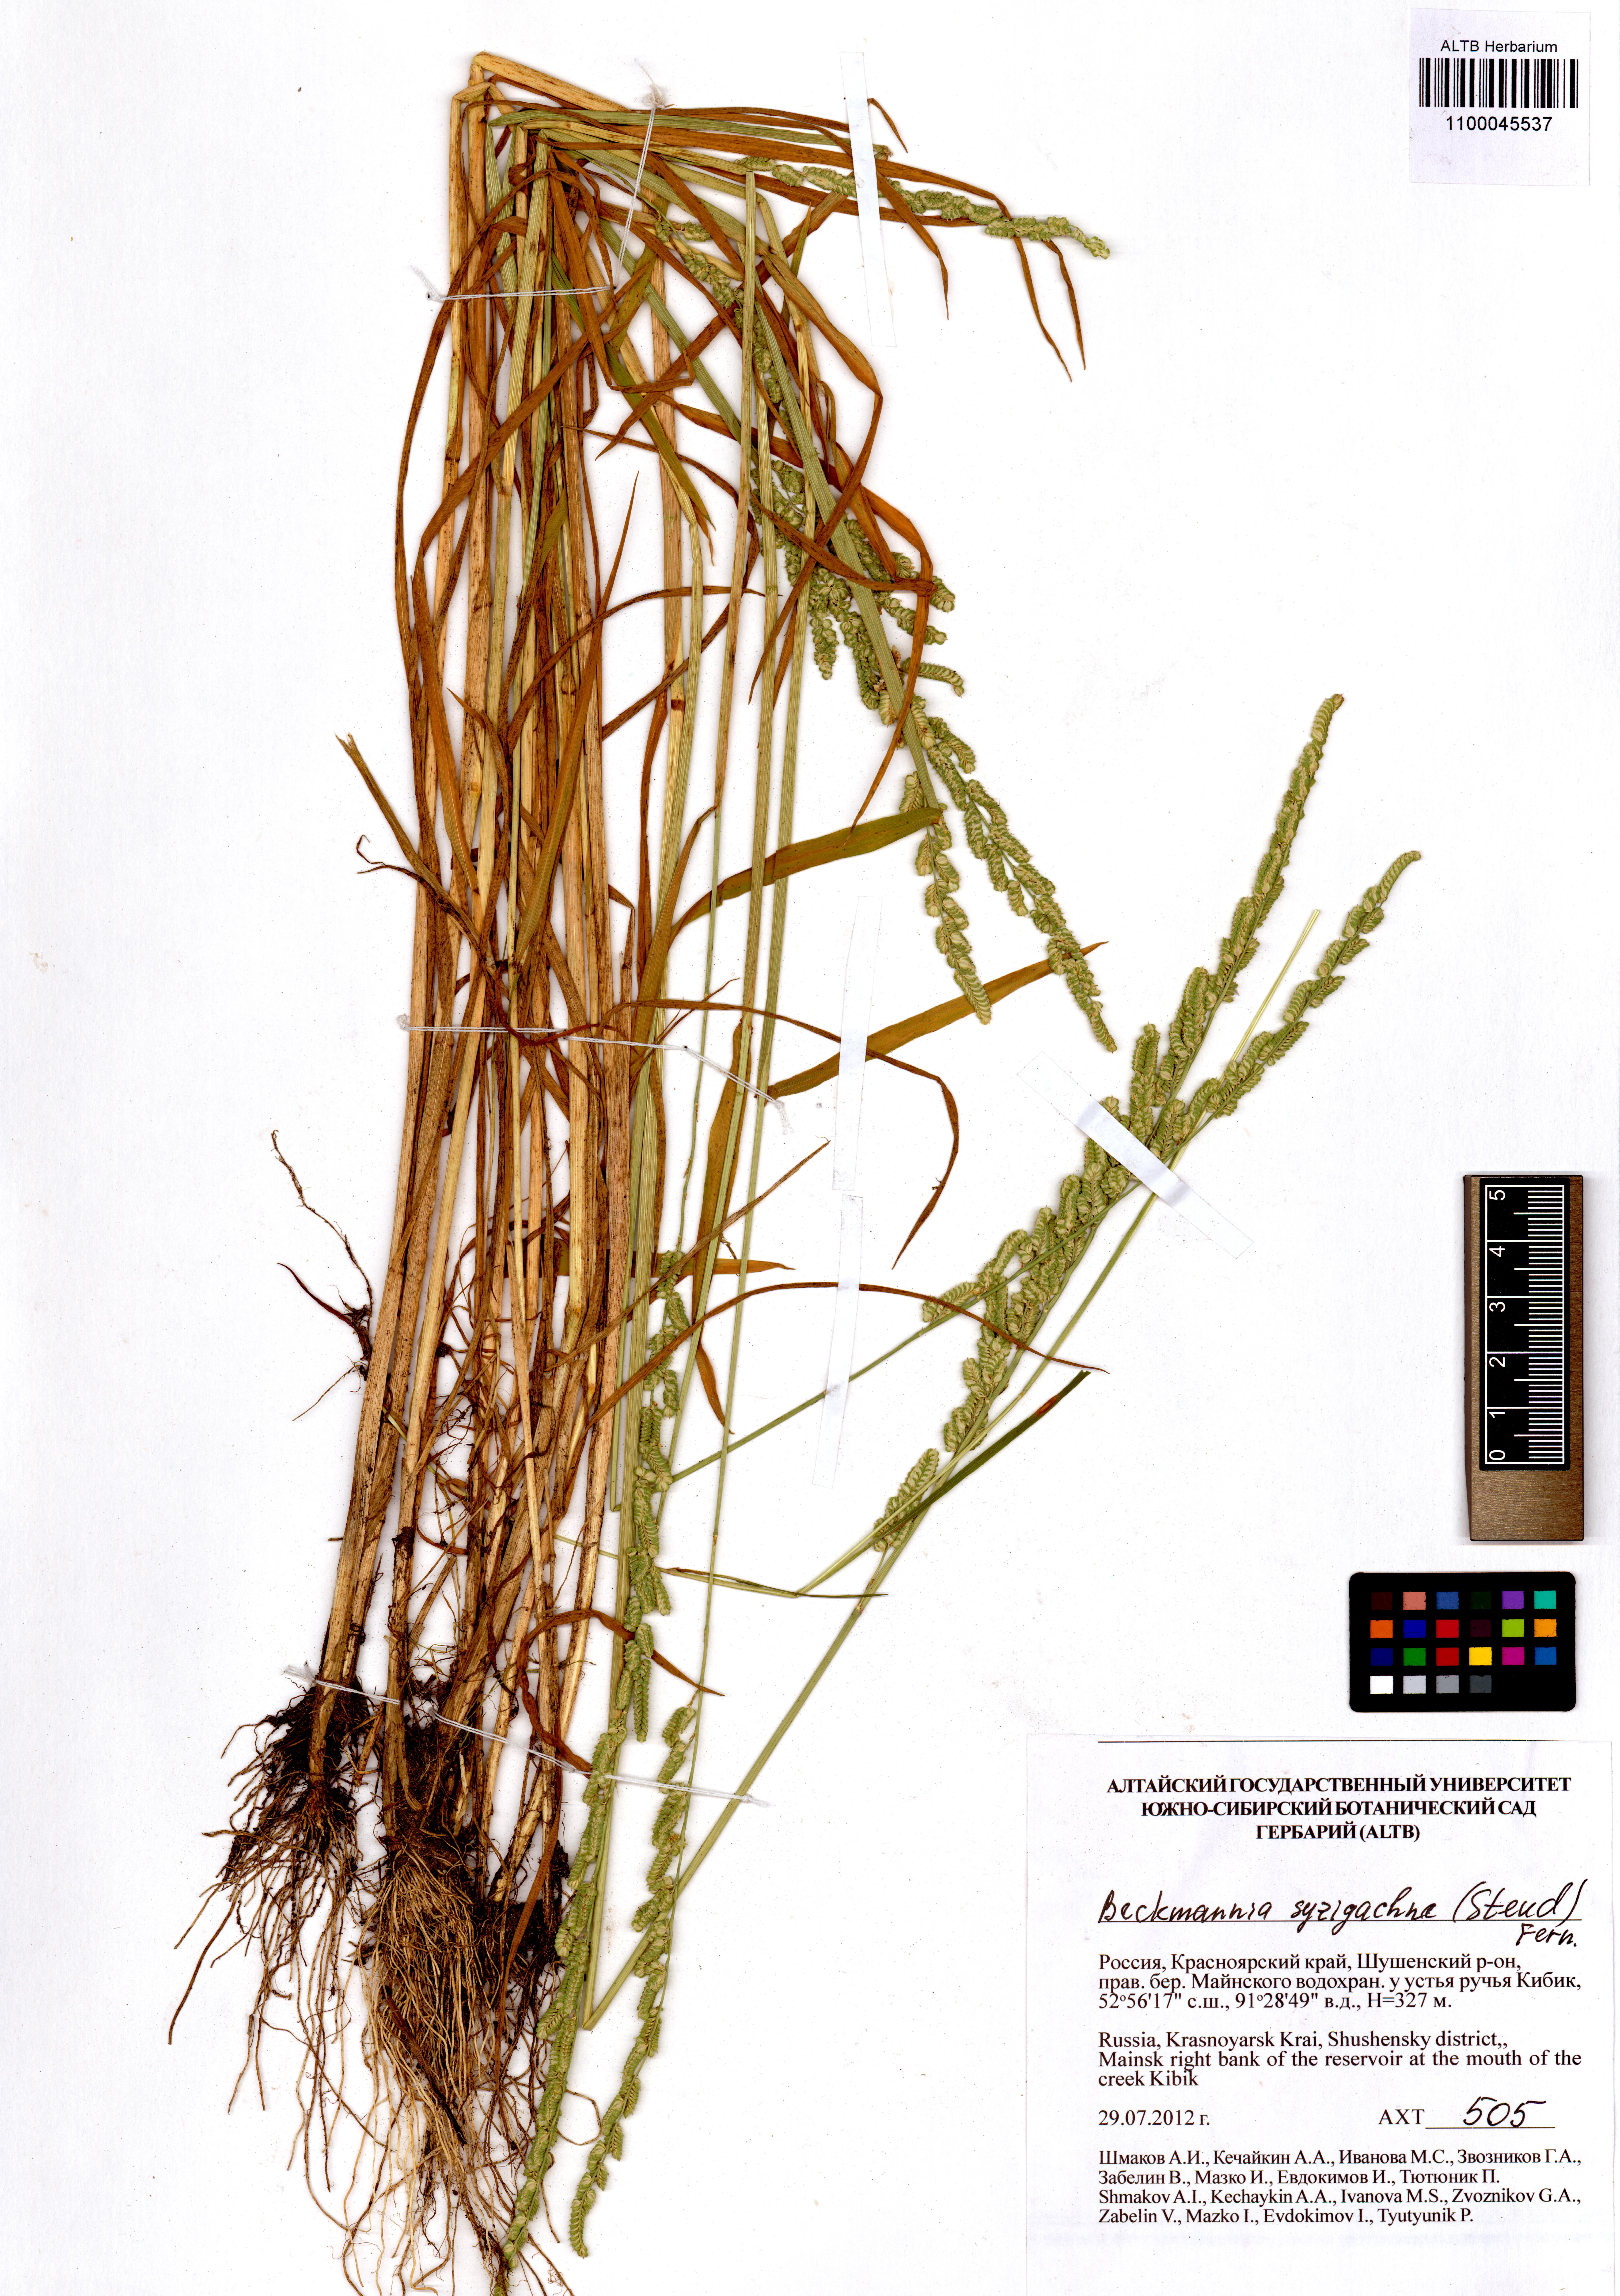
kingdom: Plantae
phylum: Tracheophyta
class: Liliopsida
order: Poales
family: Poaceae
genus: Beckmannia
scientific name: Beckmannia syzigachne
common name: American slough-grass
